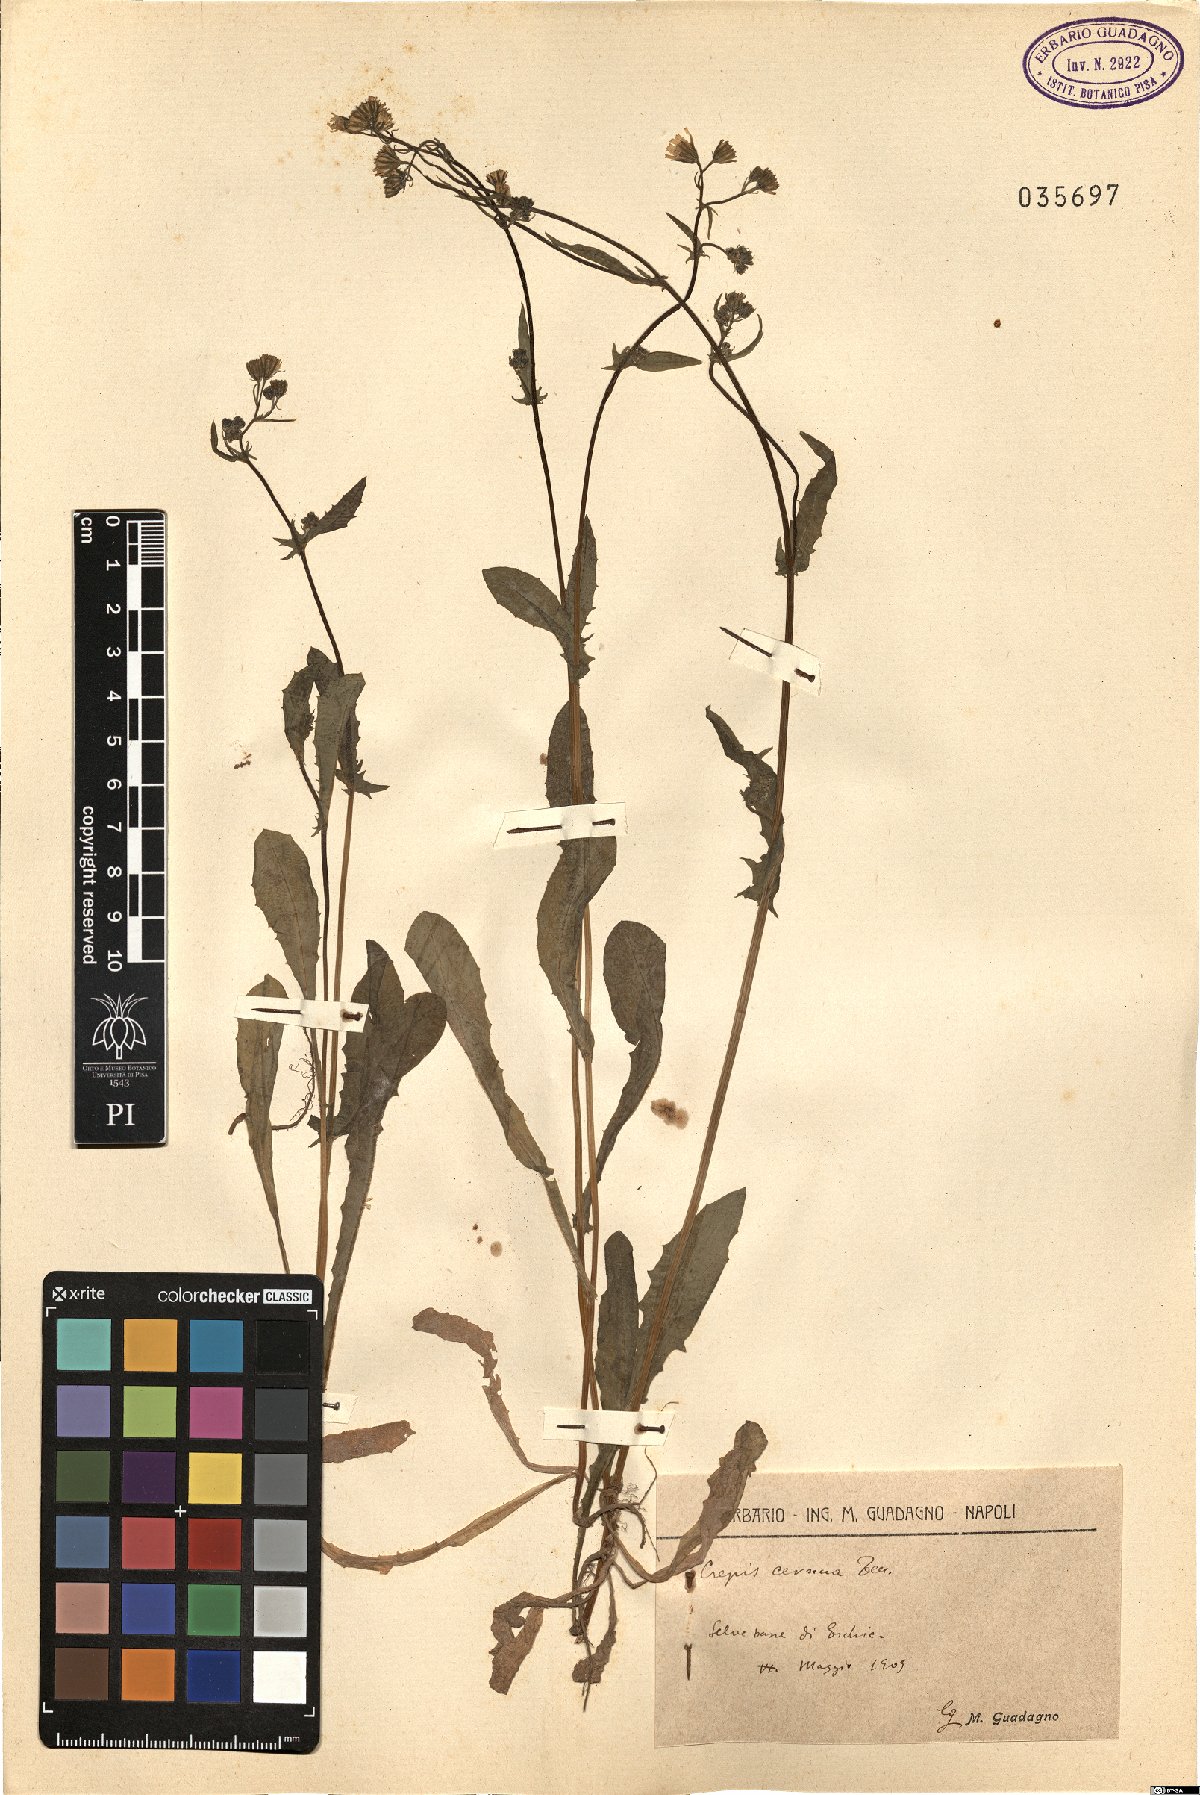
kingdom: Plantae
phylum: Tracheophyta
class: Magnoliopsida
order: Asterales
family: Asteraceae
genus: Crepis
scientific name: Crepis neglecta
